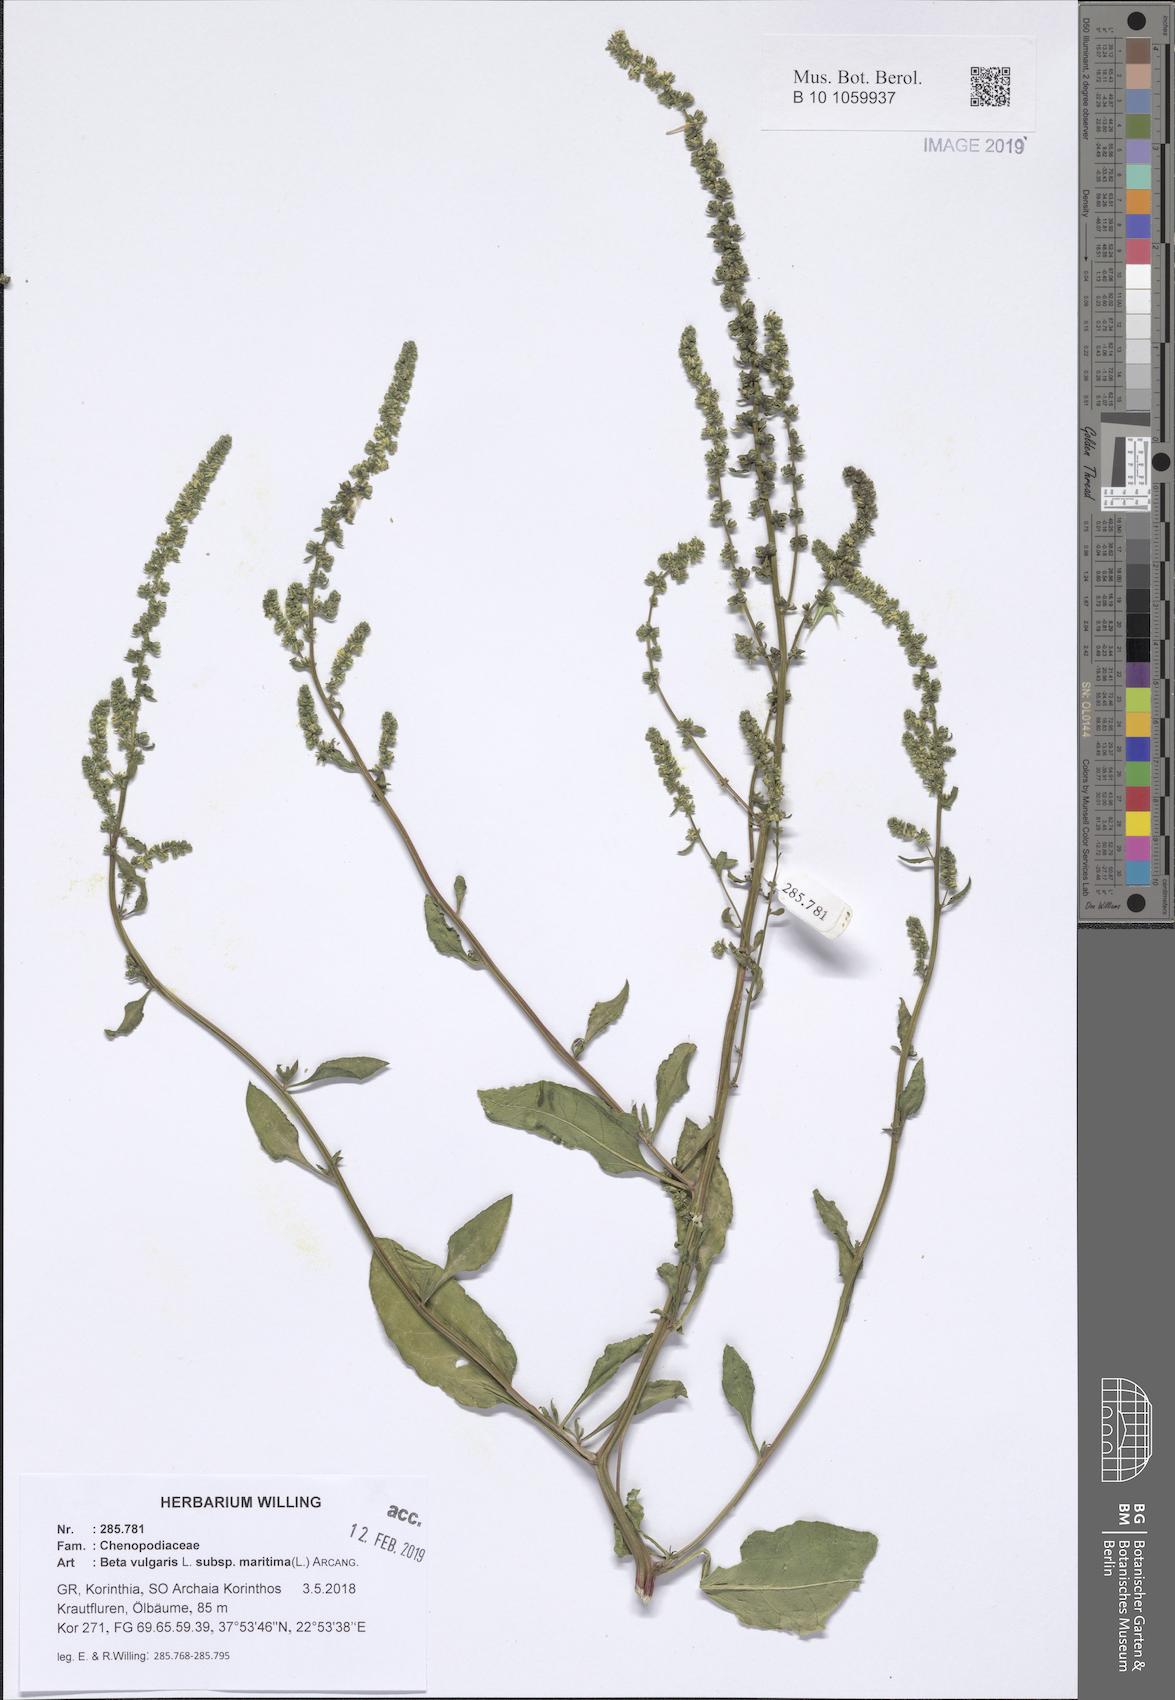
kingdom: Plantae
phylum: Tracheophyta
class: Magnoliopsida
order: Caryophyllales
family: Amaranthaceae
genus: Beta
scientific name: Beta maritima
